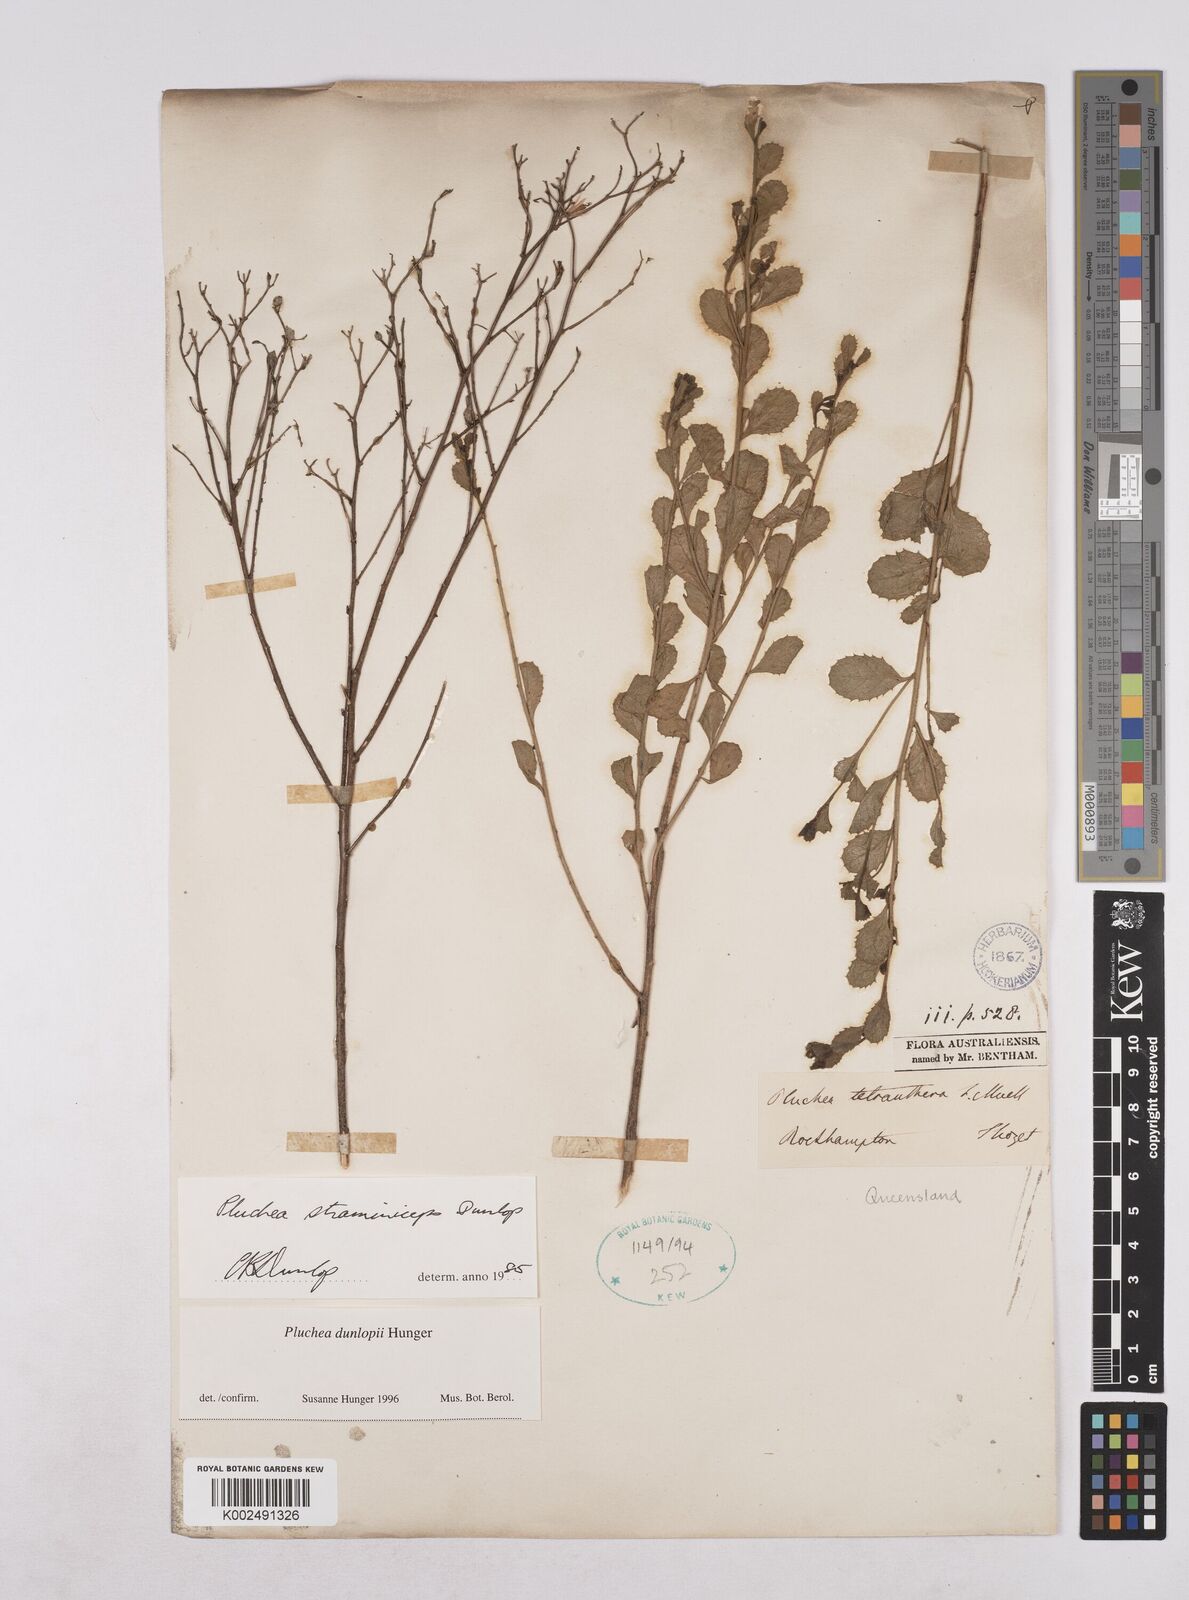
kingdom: Plantae
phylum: Tracheophyta
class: Magnoliopsida
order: Asterales
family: Asteraceae
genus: Pluchea
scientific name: Pluchea dunlopii
